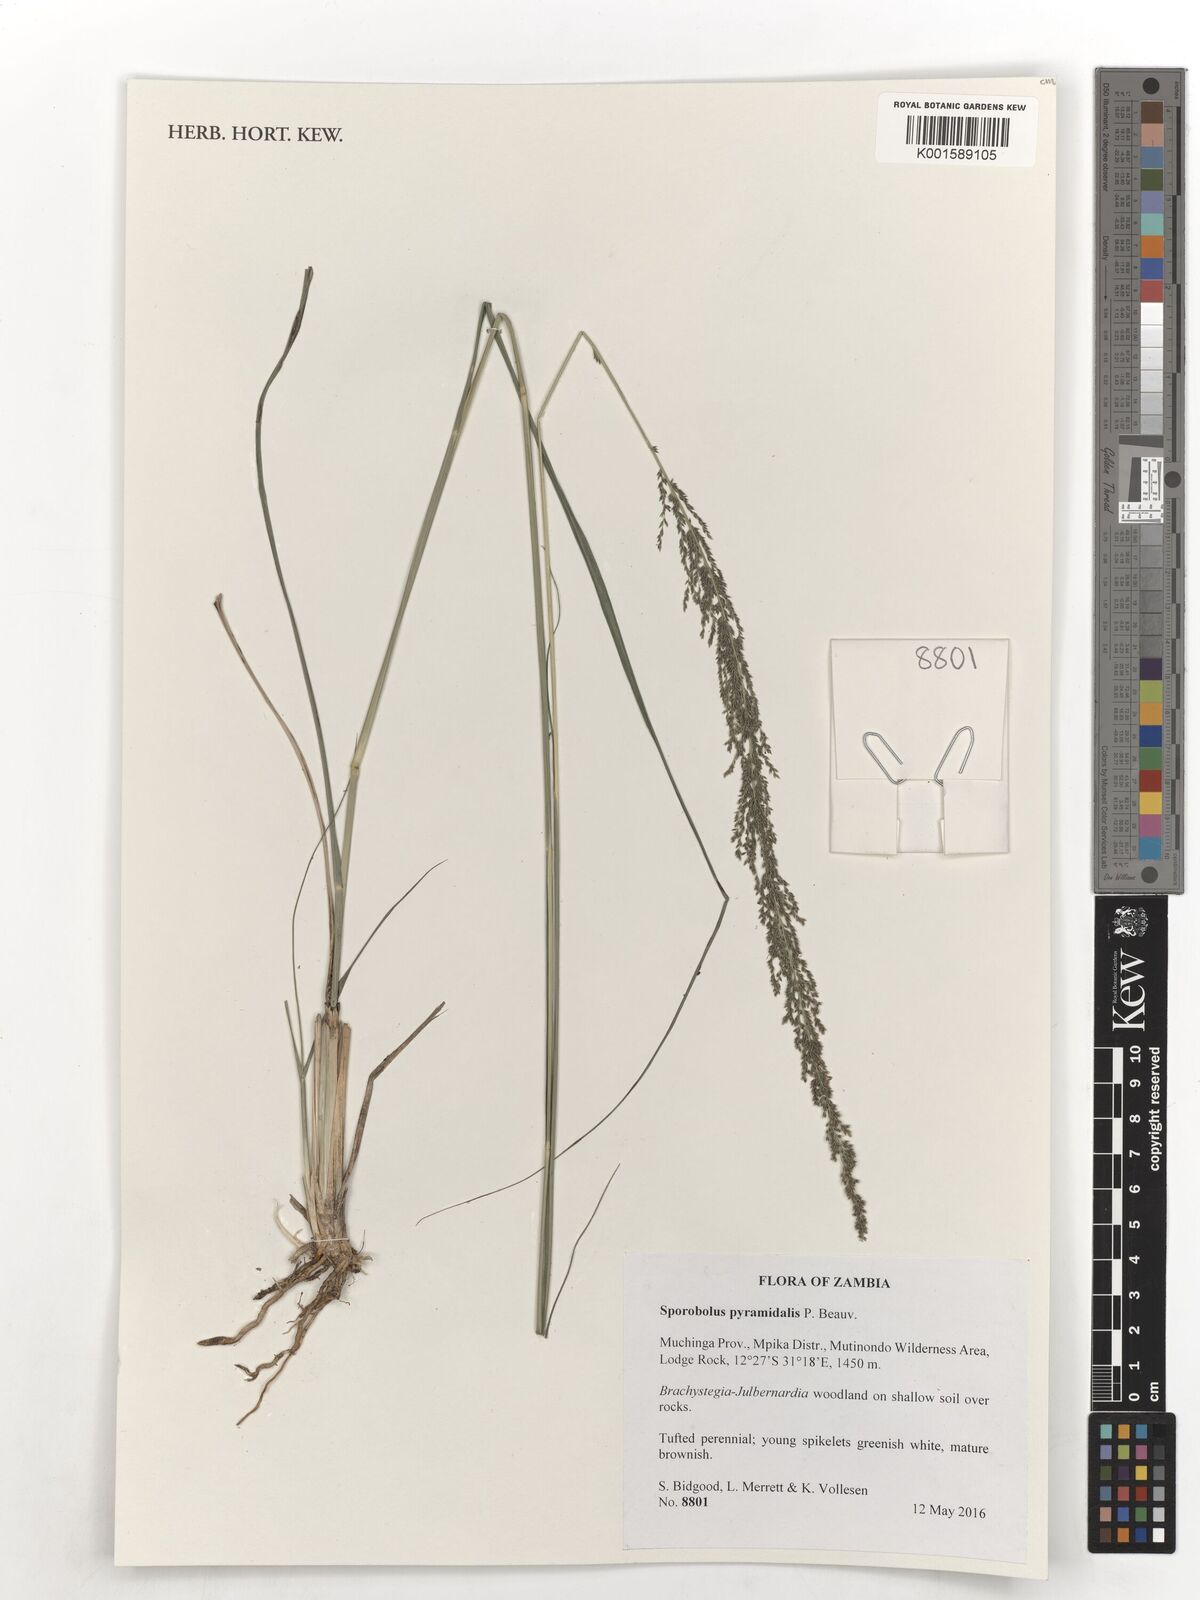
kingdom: Plantae
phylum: Tracheophyta
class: Liliopsida
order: Poales
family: Poaceae
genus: Sporobolus
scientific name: Sporobolus pyramidalis
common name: West indian dropseed
